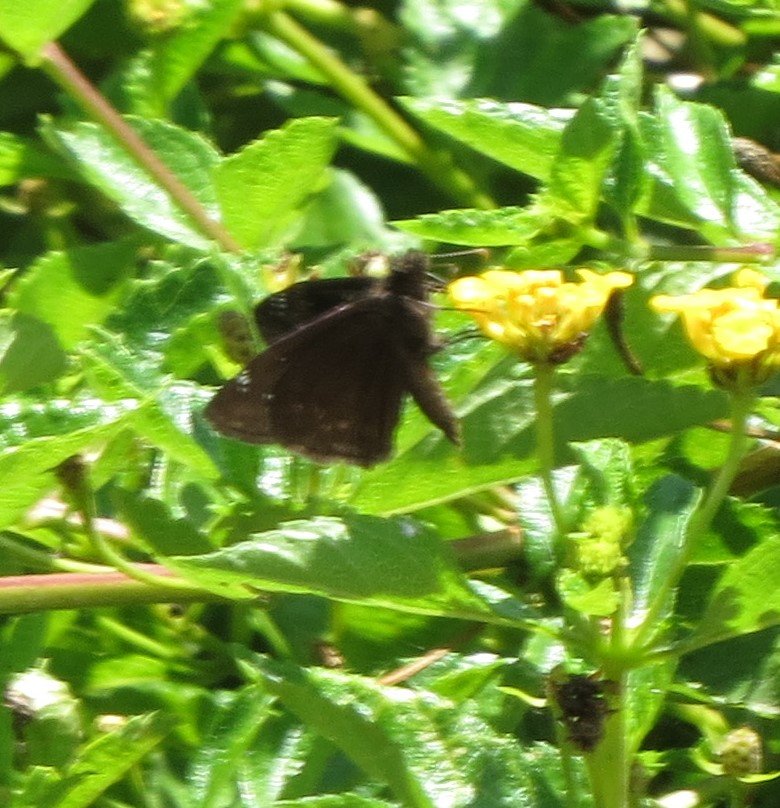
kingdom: Animalia
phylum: Arthropoda
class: Insecta
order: Lepidoptera
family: Hesperiidae
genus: Gesta
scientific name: Gesta
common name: Horace's Duskywing
